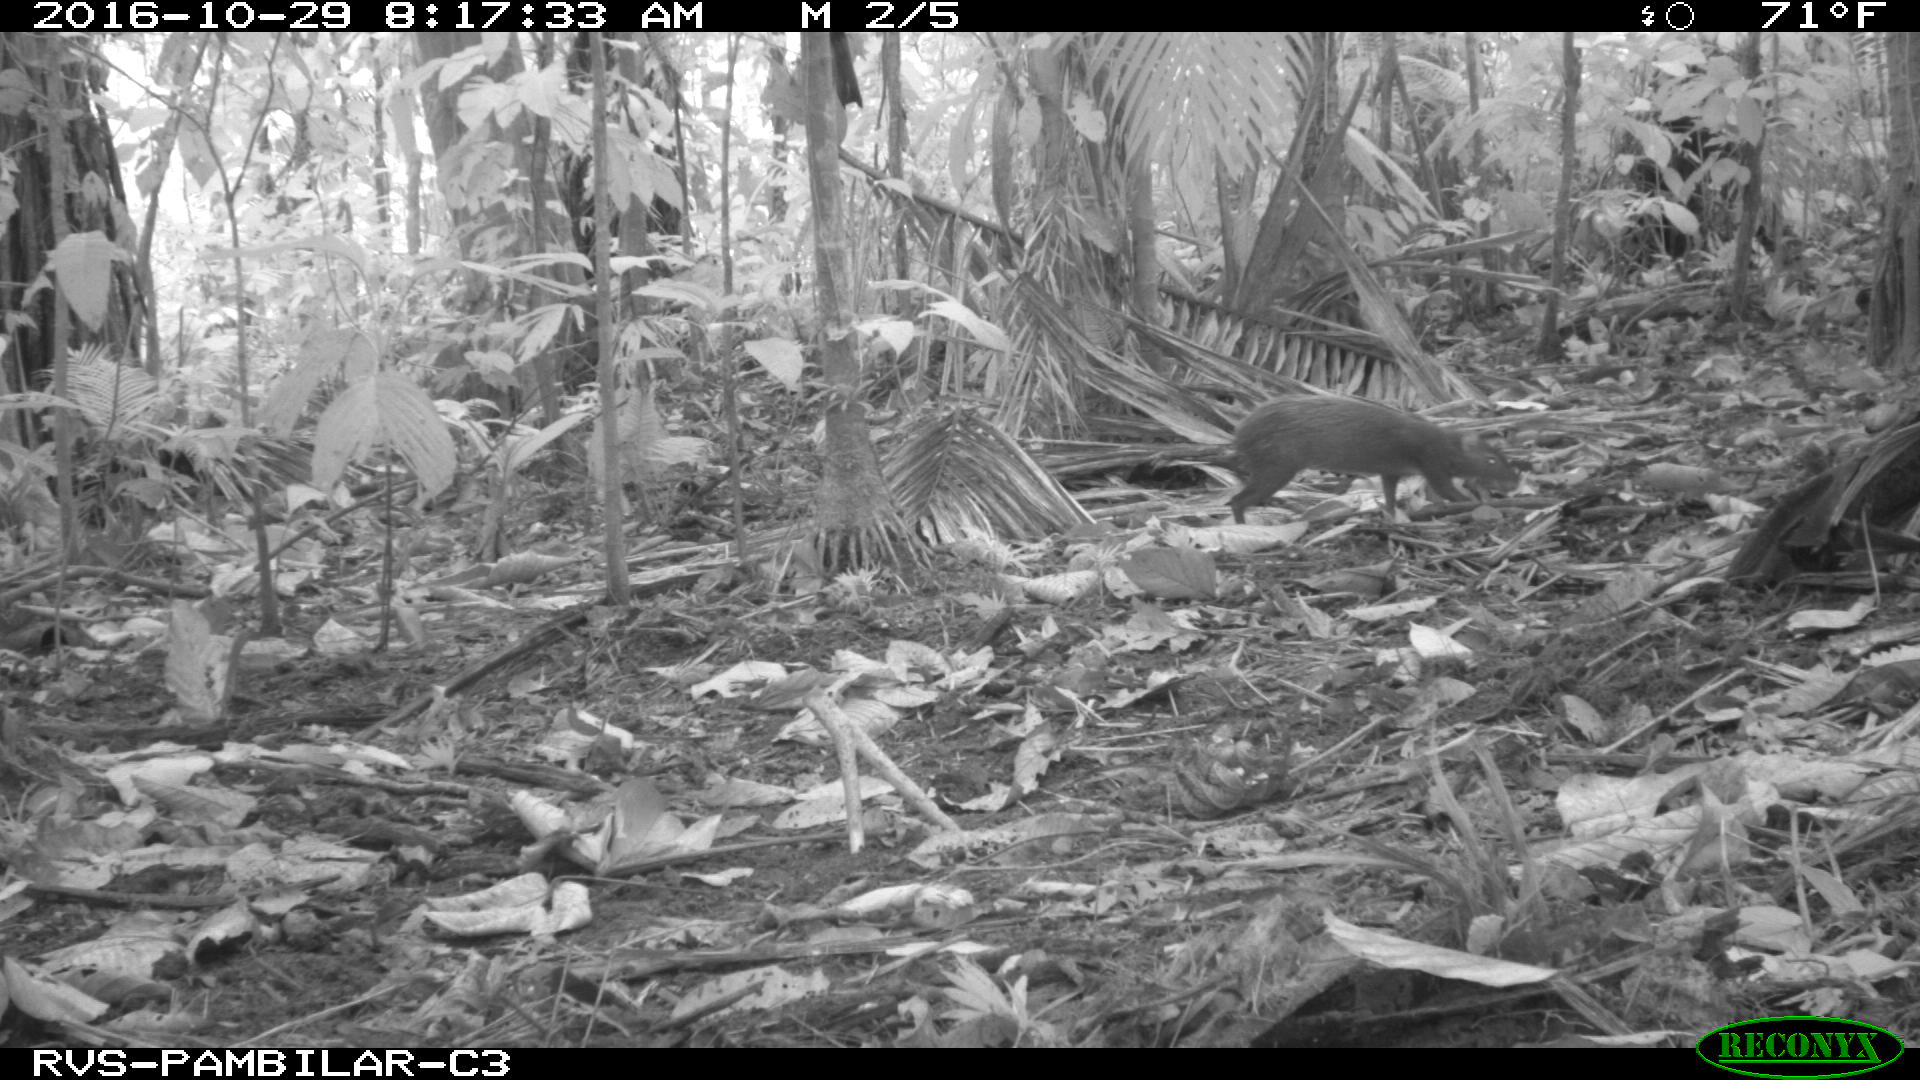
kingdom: Animalia
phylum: Chordata
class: Mammalia
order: Rodentia
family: Dasyproctidae
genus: Dasyprocta
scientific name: Dasyprocta punctata
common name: Central american agouti
